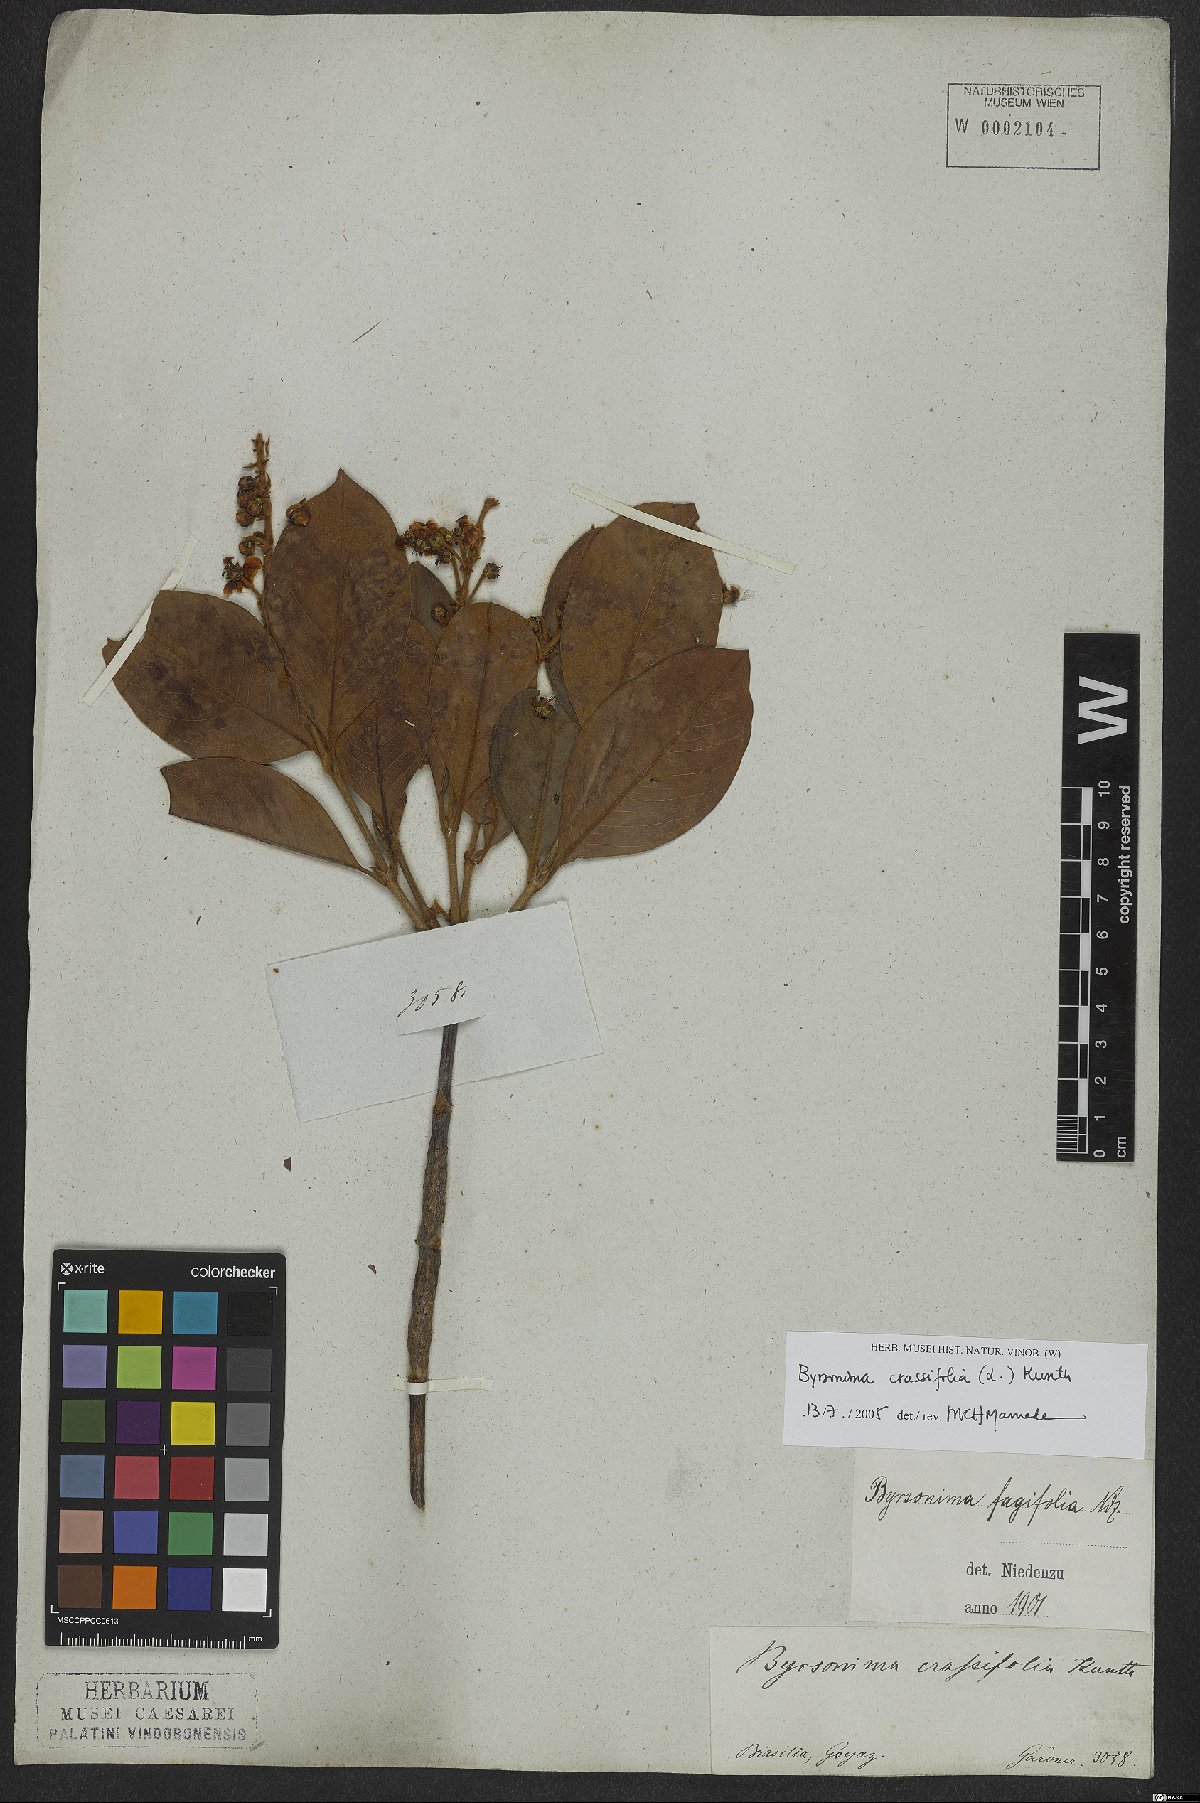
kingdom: Plantae
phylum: Tracheophyta
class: Magnoliopsida
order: Malpighiales
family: Malpighiaceae
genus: Byrsonima
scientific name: Byrsonima crassifolia
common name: Golden spoon
